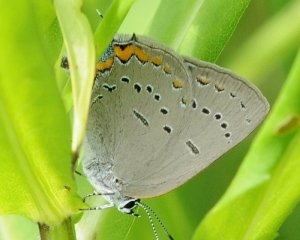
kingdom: Animalia
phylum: Arthropoda
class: Insecta
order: Lepidoptera
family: Lycaenidae
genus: Strymon
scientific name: Strymon acadica
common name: Acadian Hairstreak
